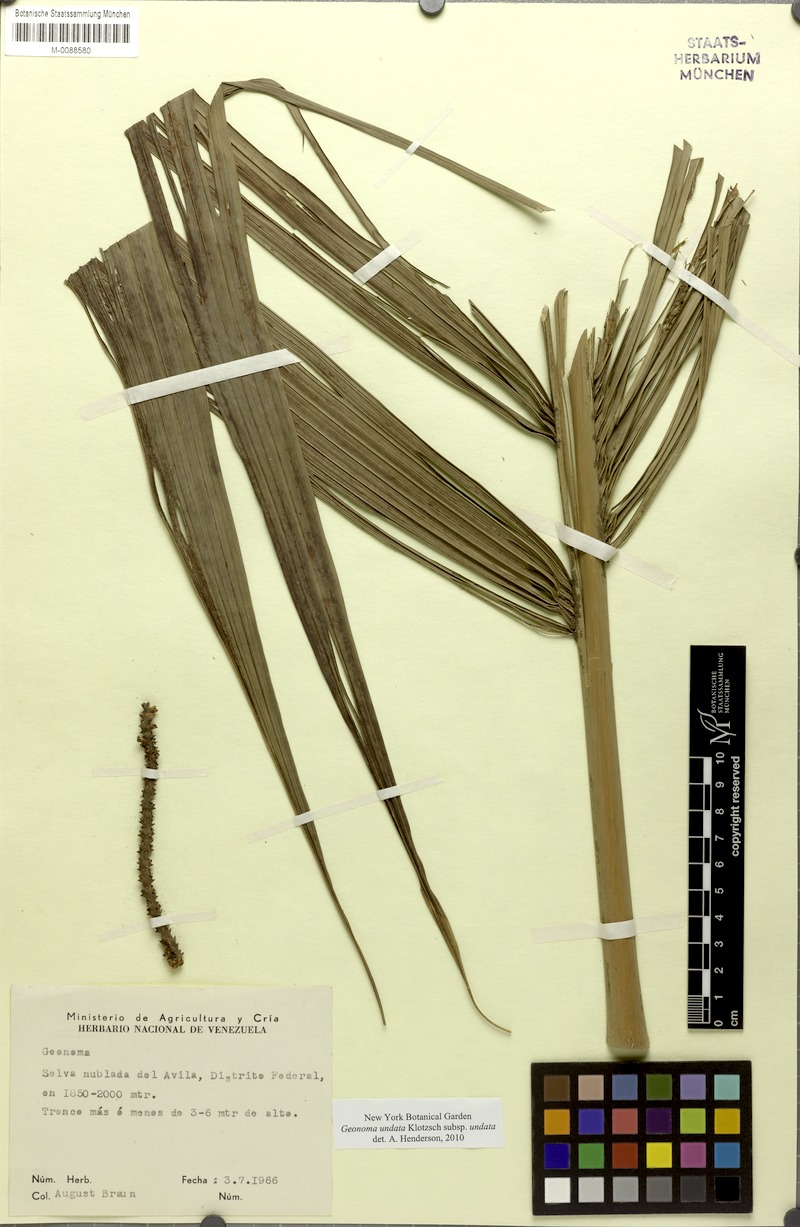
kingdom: Plantae
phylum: Tracheophyta
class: Liliopsida
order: Arecales
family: Arecaceae
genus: Geonoma
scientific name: Geonoma undata
